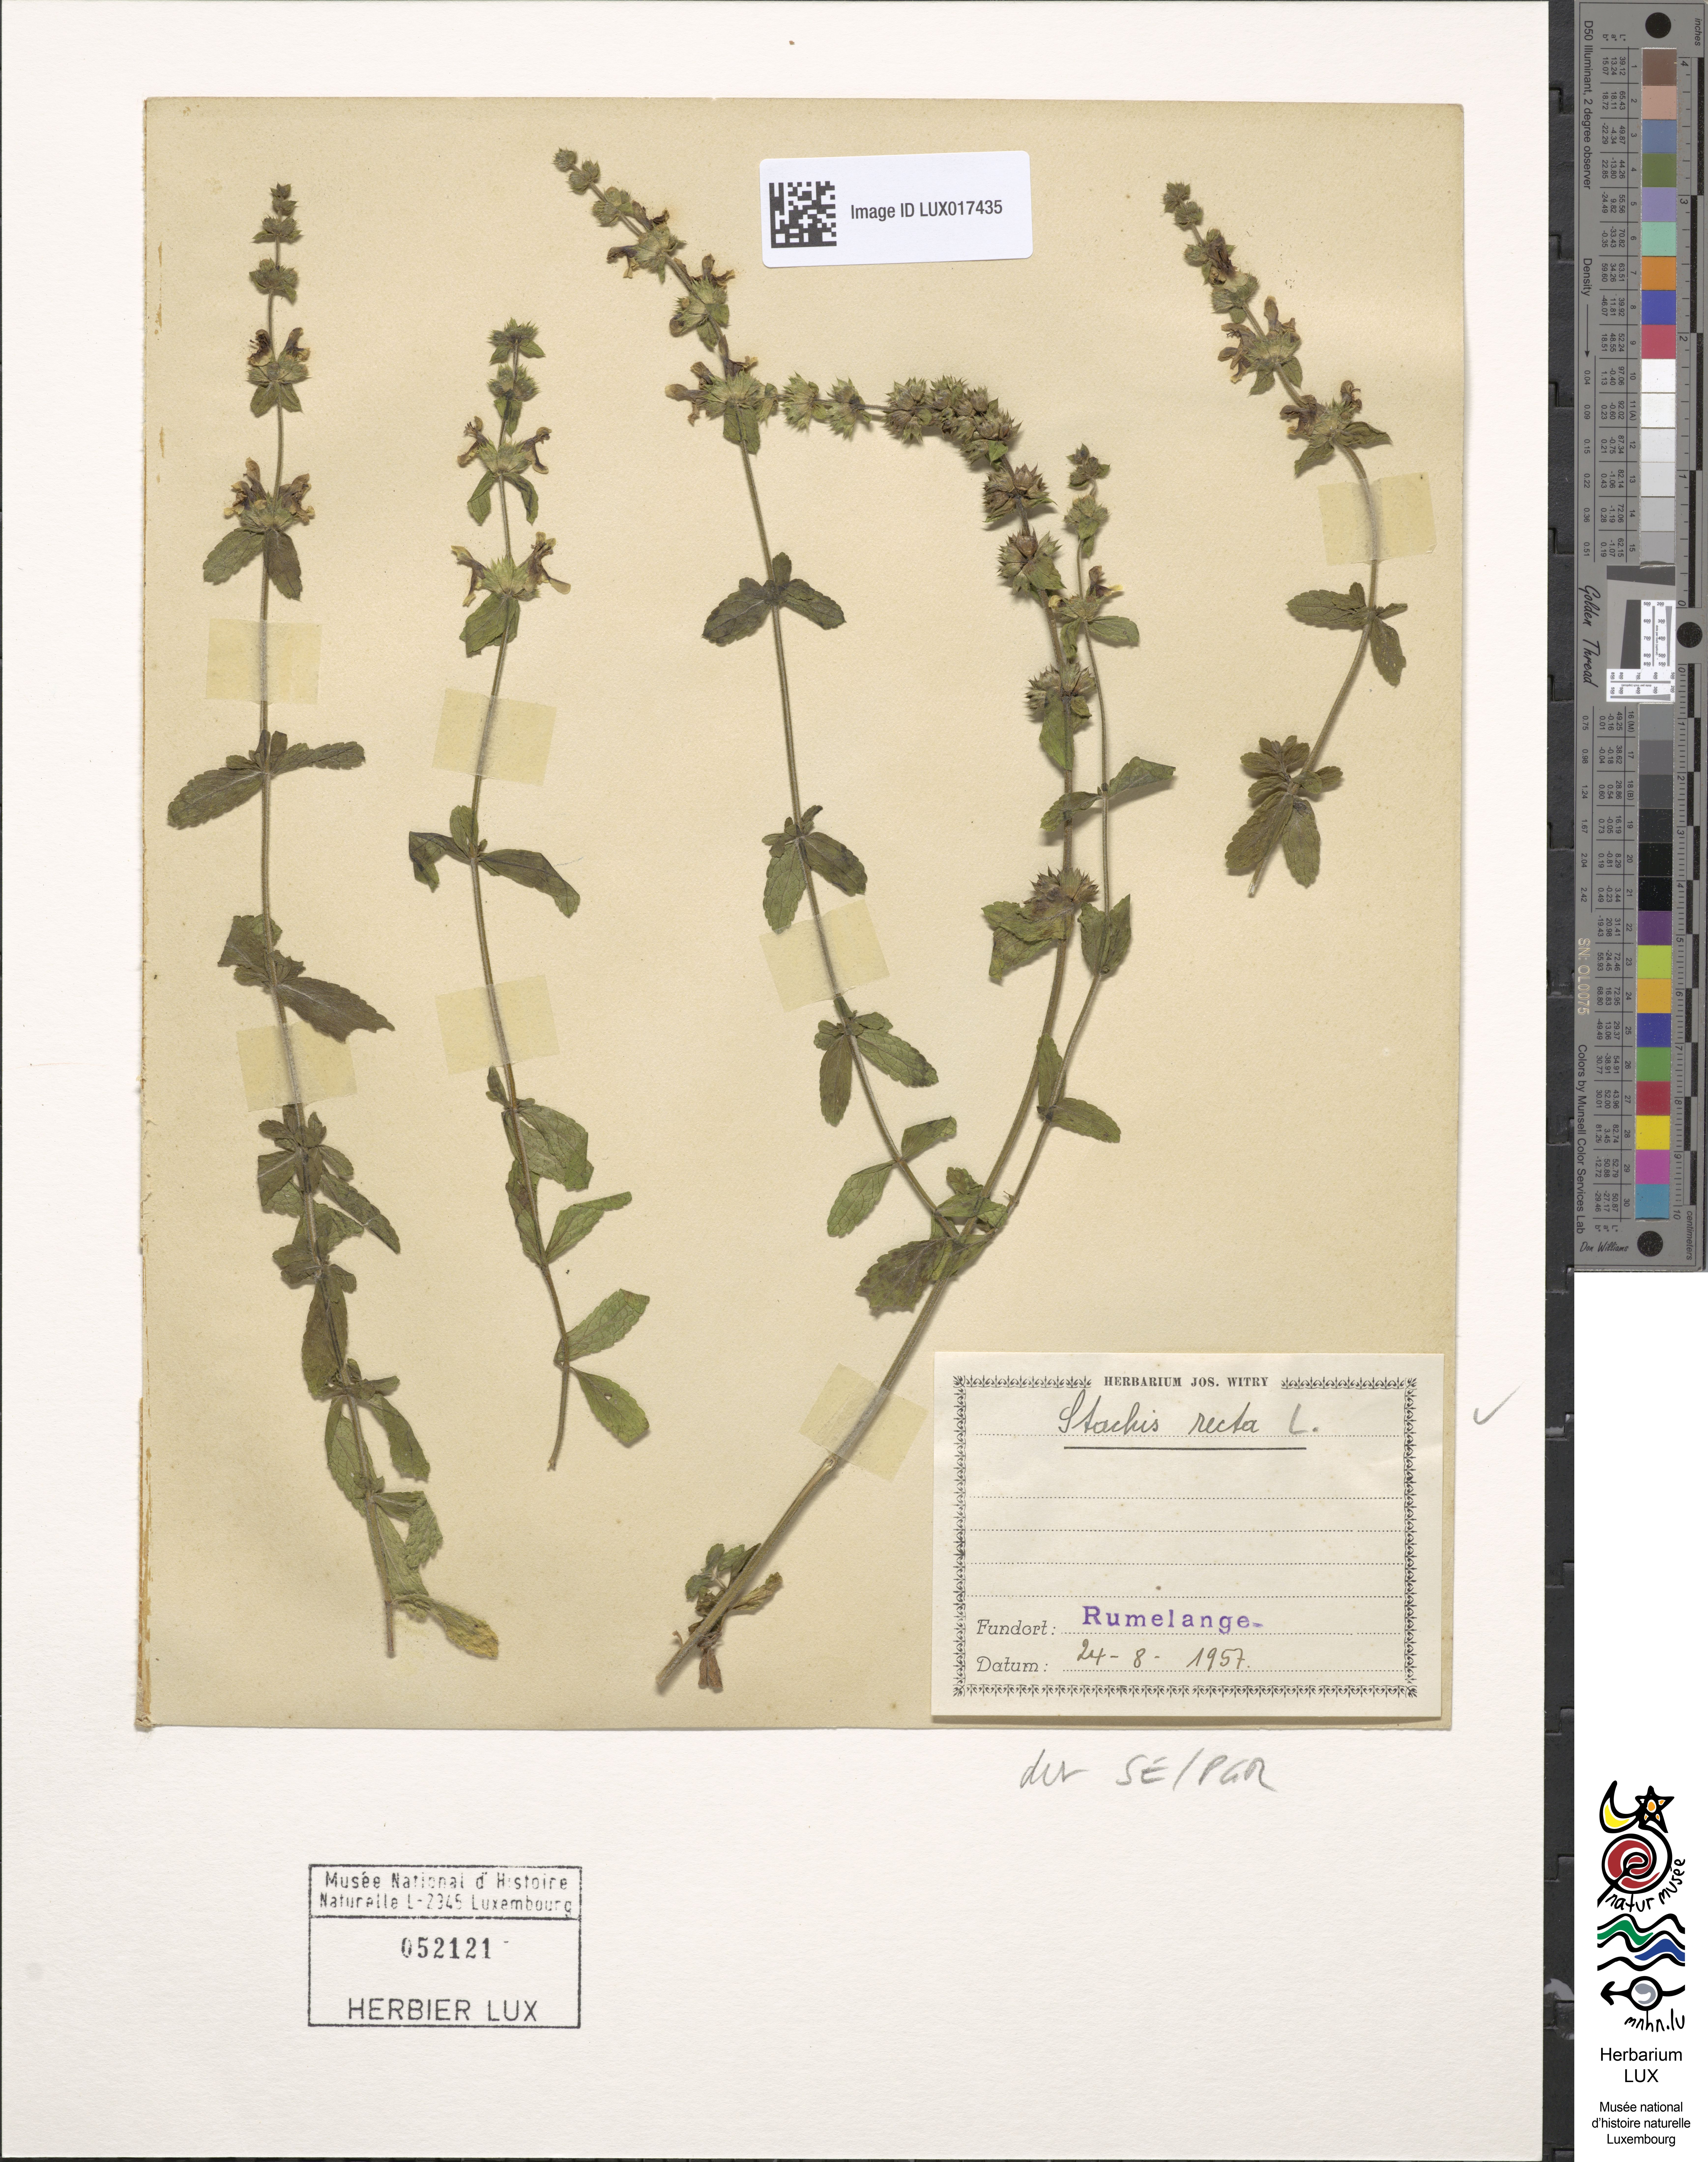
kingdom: Plantae
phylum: Tracheophyta
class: Magnoliopsida
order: Lamiales
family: Lamiaceae
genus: Stachys
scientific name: Stachys recta
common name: Perennial yellow-woundwort
